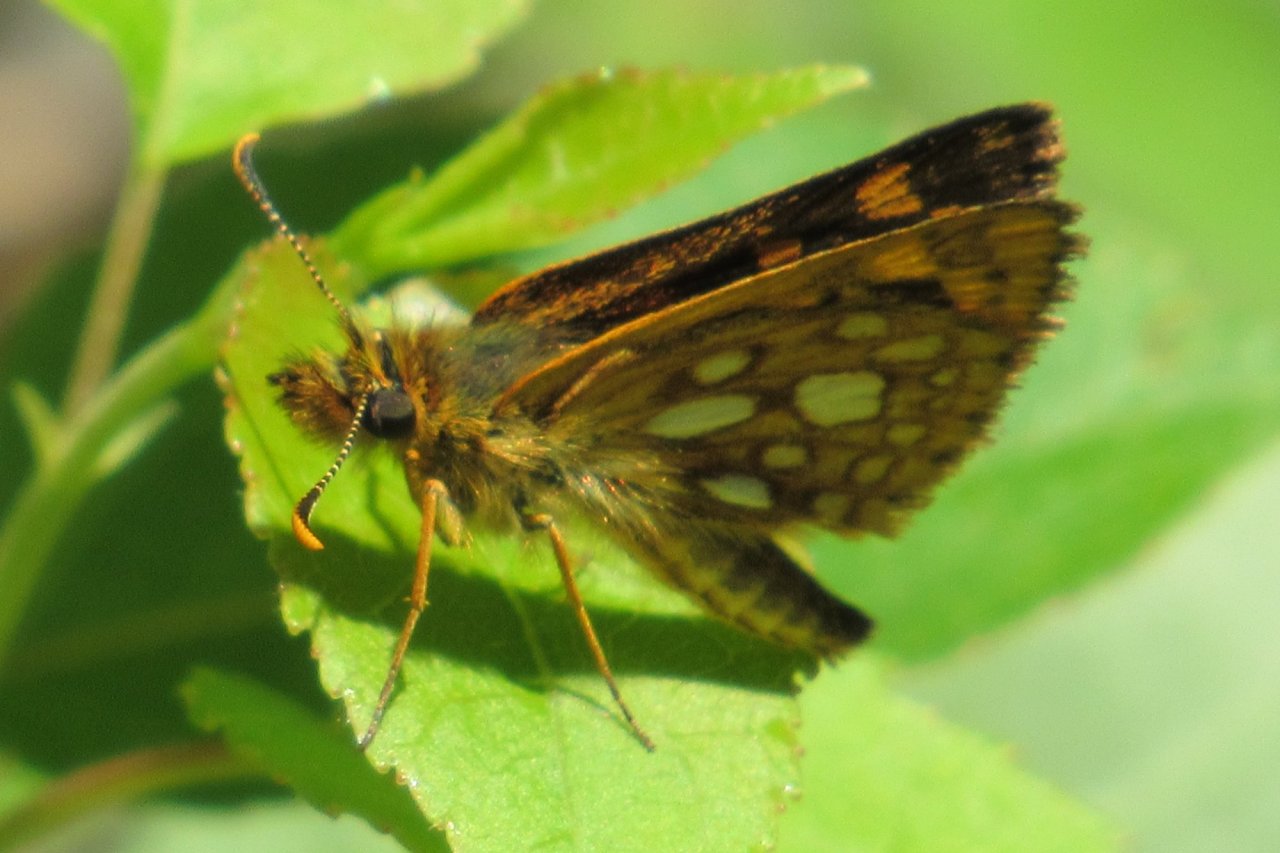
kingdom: Animalia
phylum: Arthropoda
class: Insecta
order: Lepidoptera
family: Hesperiidae
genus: Carterocephalus
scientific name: Carterocephalus palaemon
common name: Chequered Skipper
